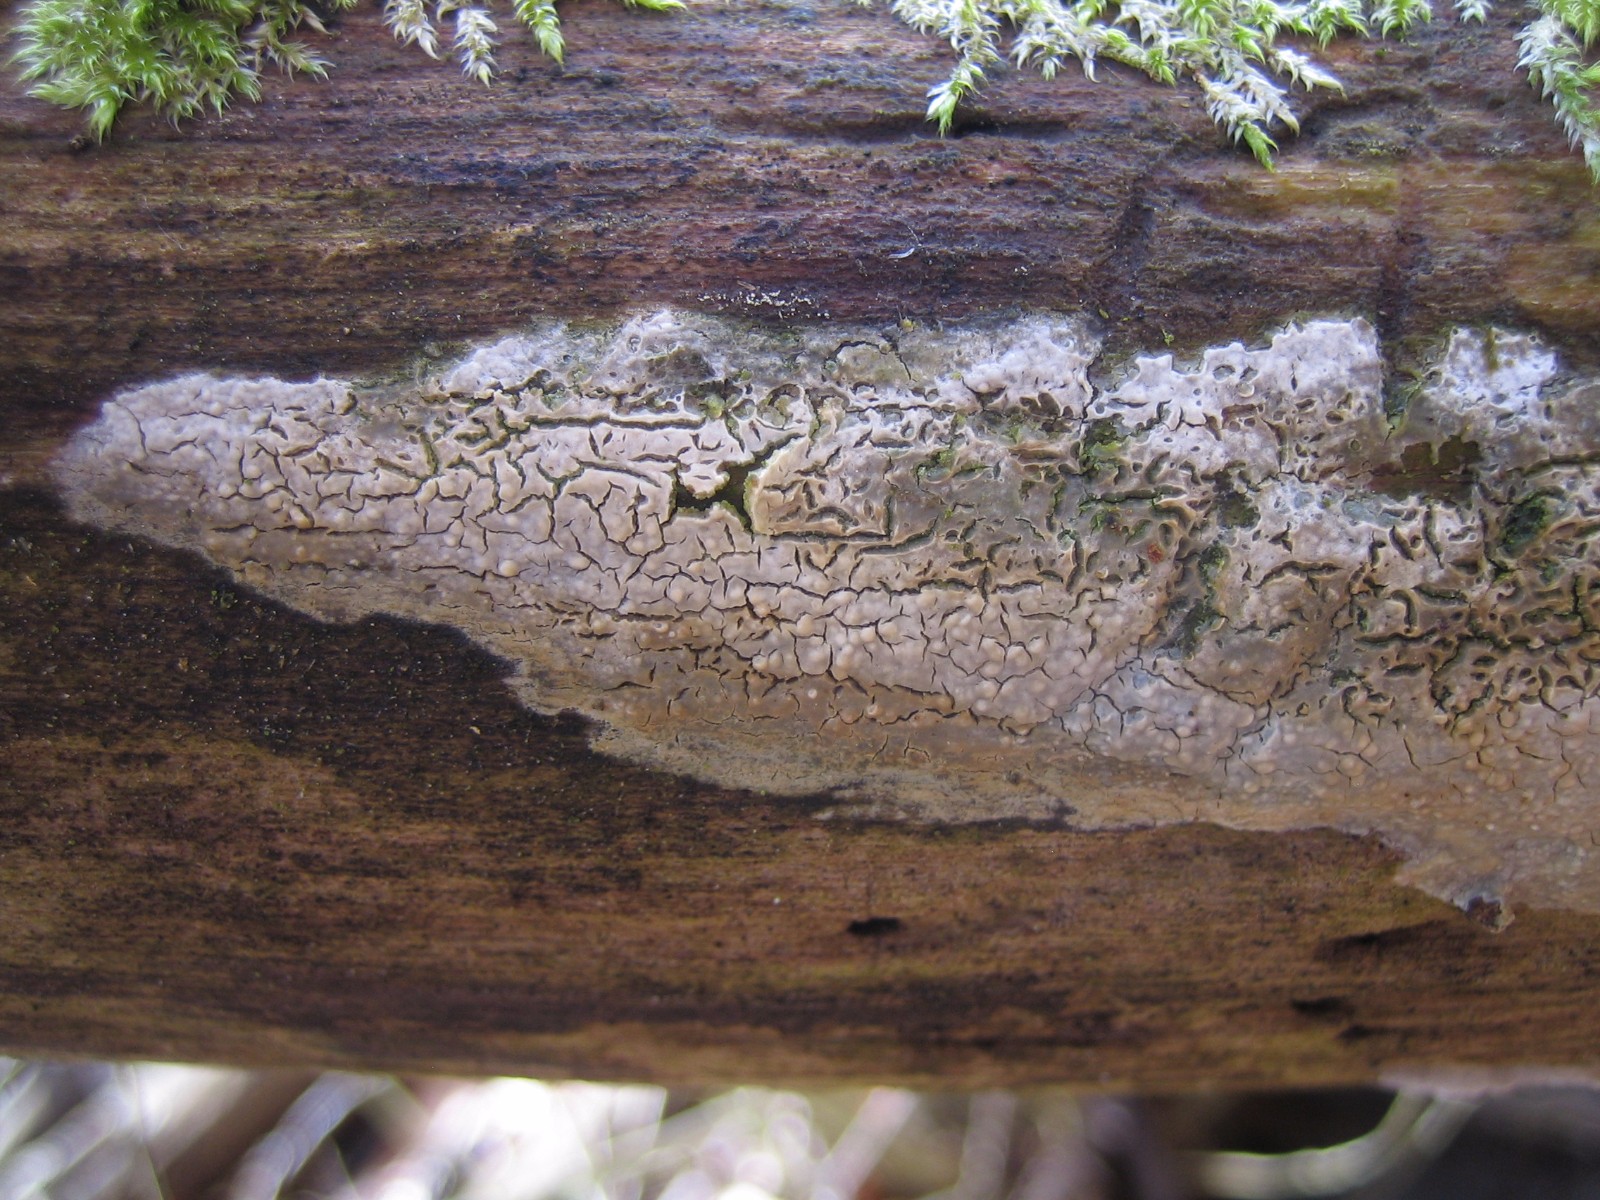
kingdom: Fungi
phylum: Basidiomycota
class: Agaricomycetes
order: Agaricales
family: Physalacriaceae
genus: Cylindrobasidium
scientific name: Cylindrobasidium evolvens
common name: sprækkehinde
